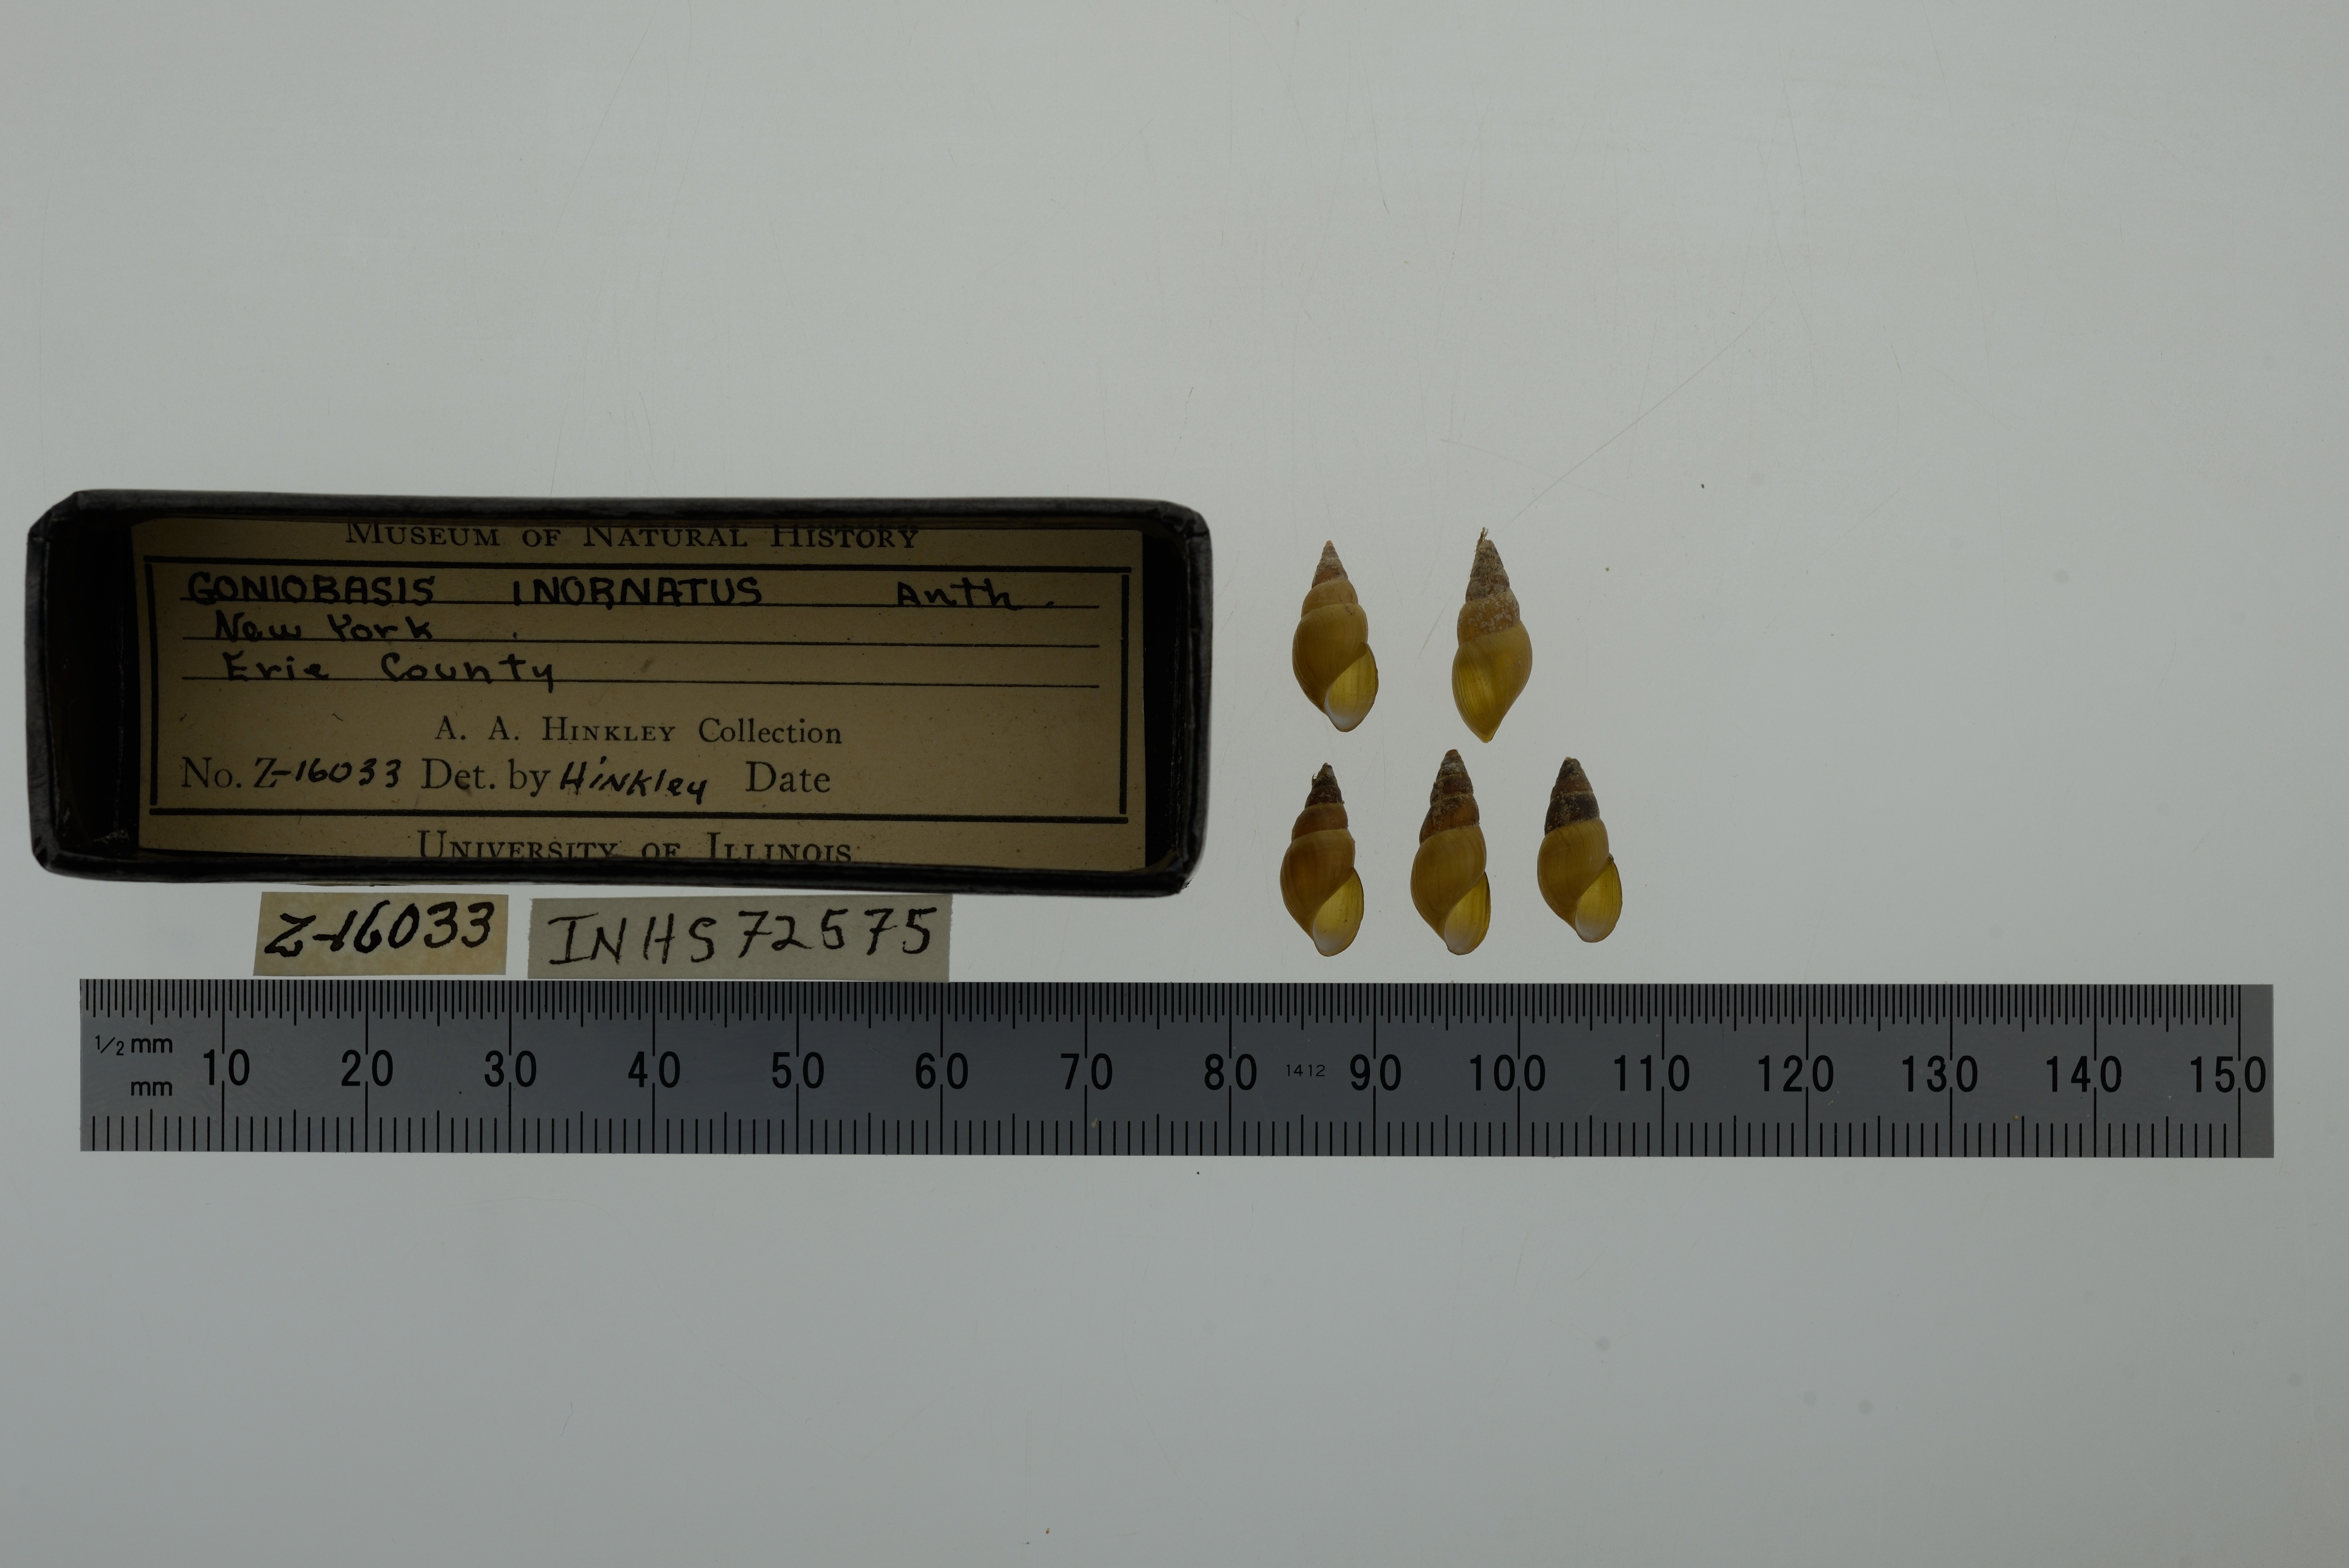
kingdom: Animalia
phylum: Mollusca
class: Gastropoda
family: Pleuroceridae
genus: Elimia
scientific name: Elimia livescens
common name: Liver elimia
